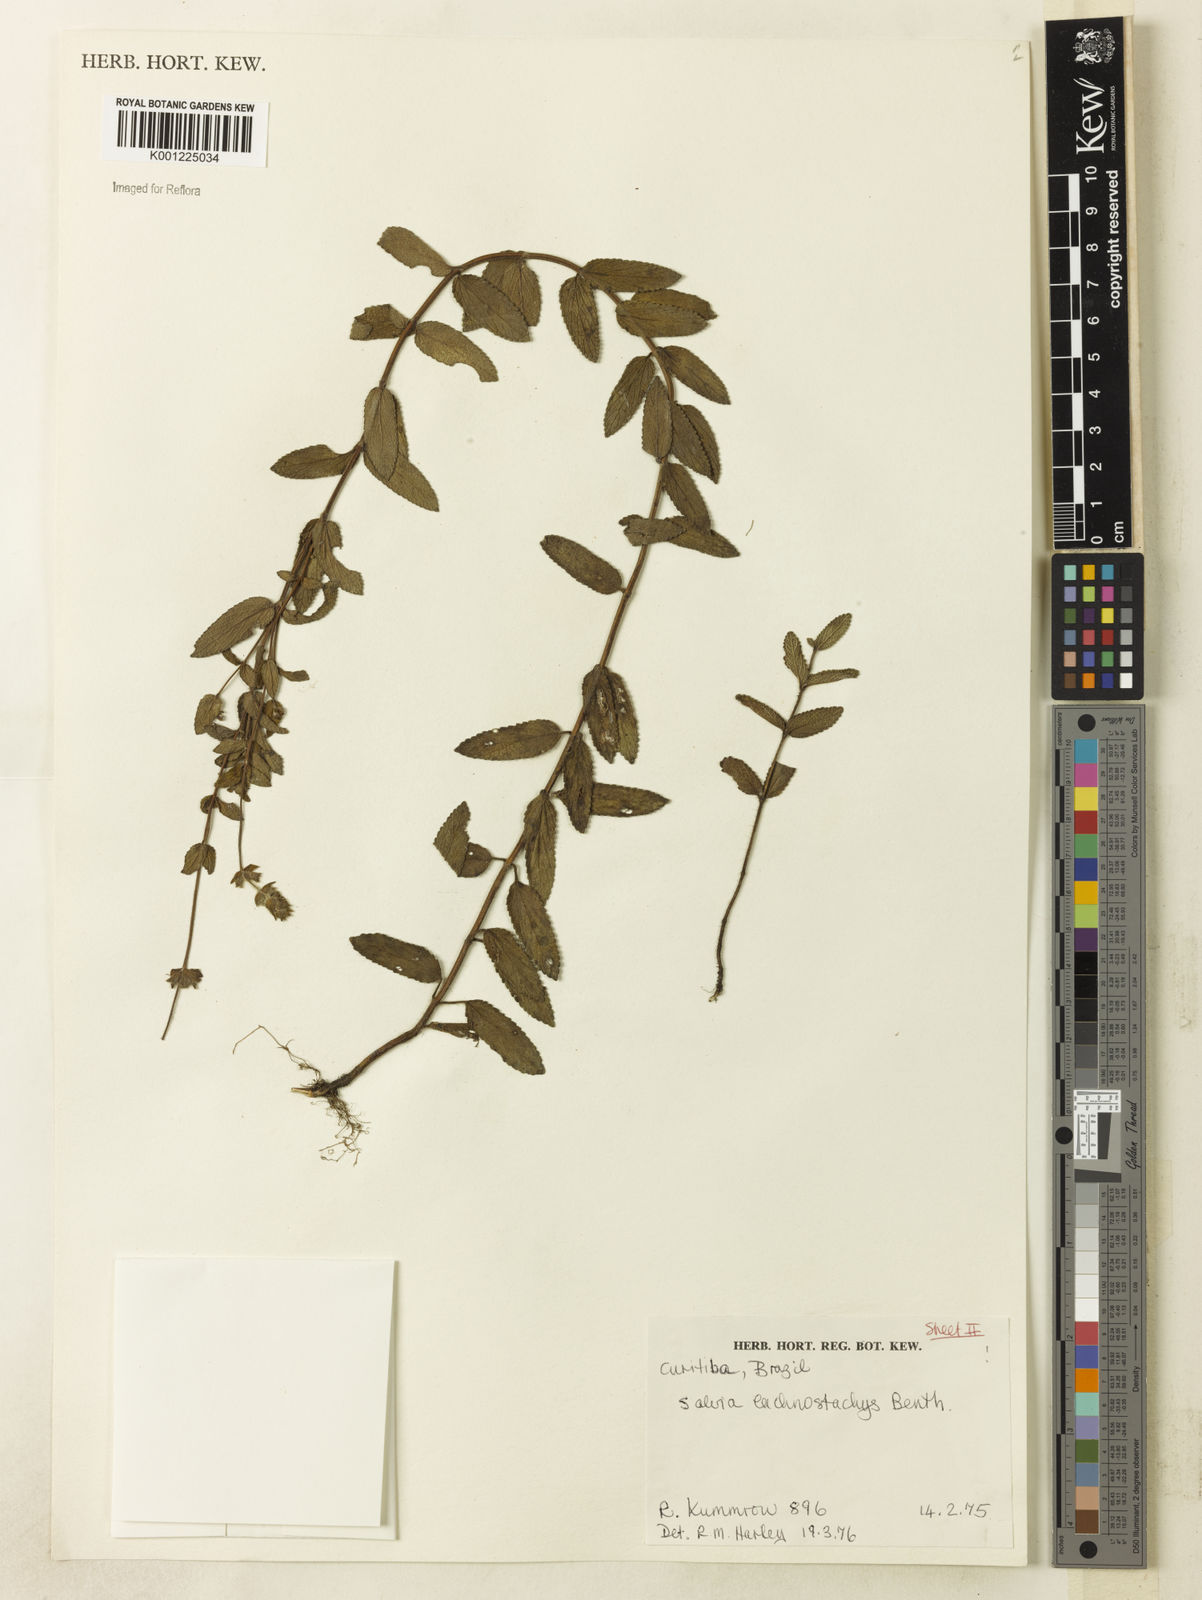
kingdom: Plantae
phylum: Tracheophyta
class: Magnoliopsida
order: Lamiales
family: Lamiaceae
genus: Salvia
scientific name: Salvia lachnostachys
